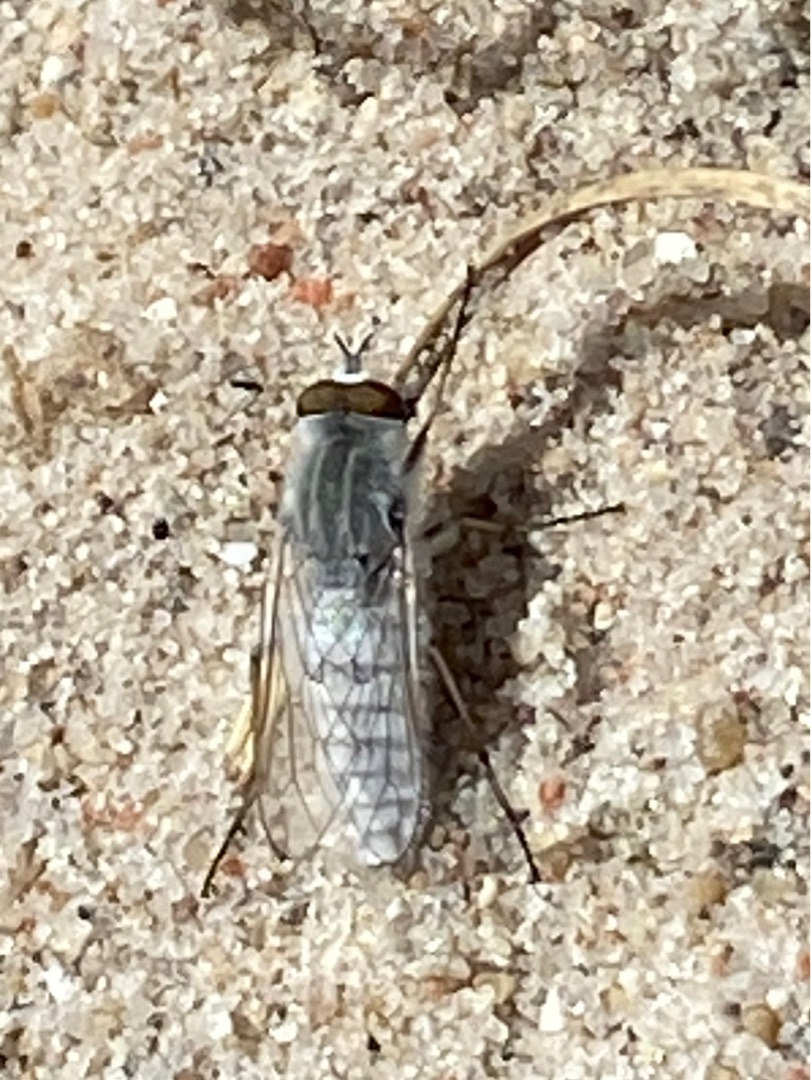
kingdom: Animalia
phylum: Arthropoda
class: Insecta
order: Diptera
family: Therevidae
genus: Acrosathe
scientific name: Acrosathe annulata
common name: Sølvhåret stiletflue
